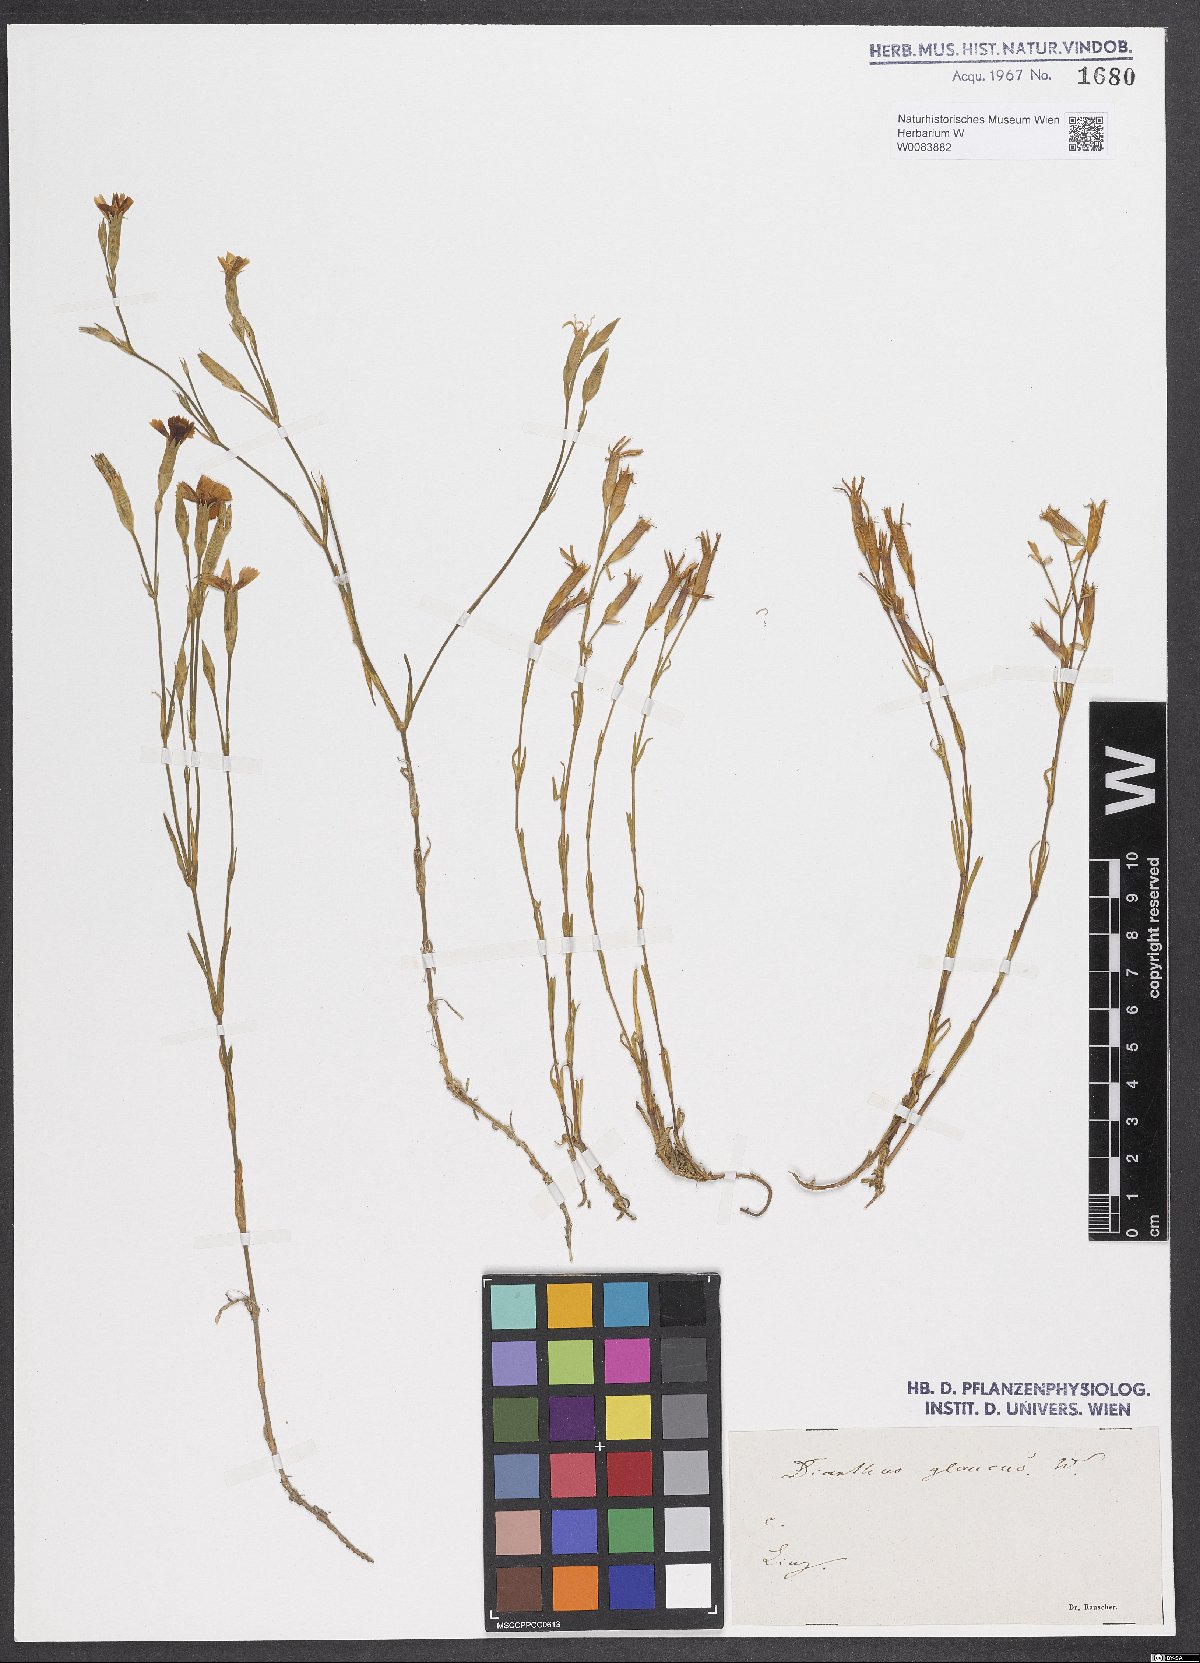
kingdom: Plantae
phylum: Tracheophyta
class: Magnoliopsida
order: Caryophyllales
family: Caryophyllaceae
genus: Dianthus
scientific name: Dianthus deltoides
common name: Maiden pink
